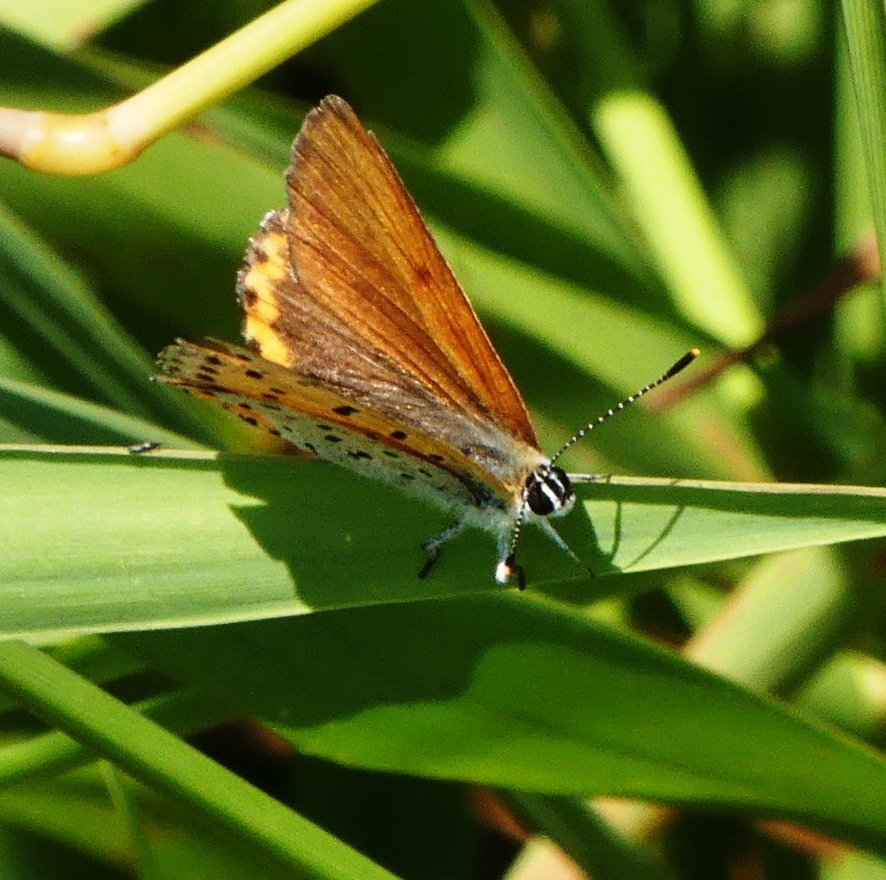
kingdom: Animalia
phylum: Arthropoda
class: Insecta
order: Lepidoptera
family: Sesiidae
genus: Sesia
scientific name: Sesia Lycaena hyllus
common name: Bronze Copper
